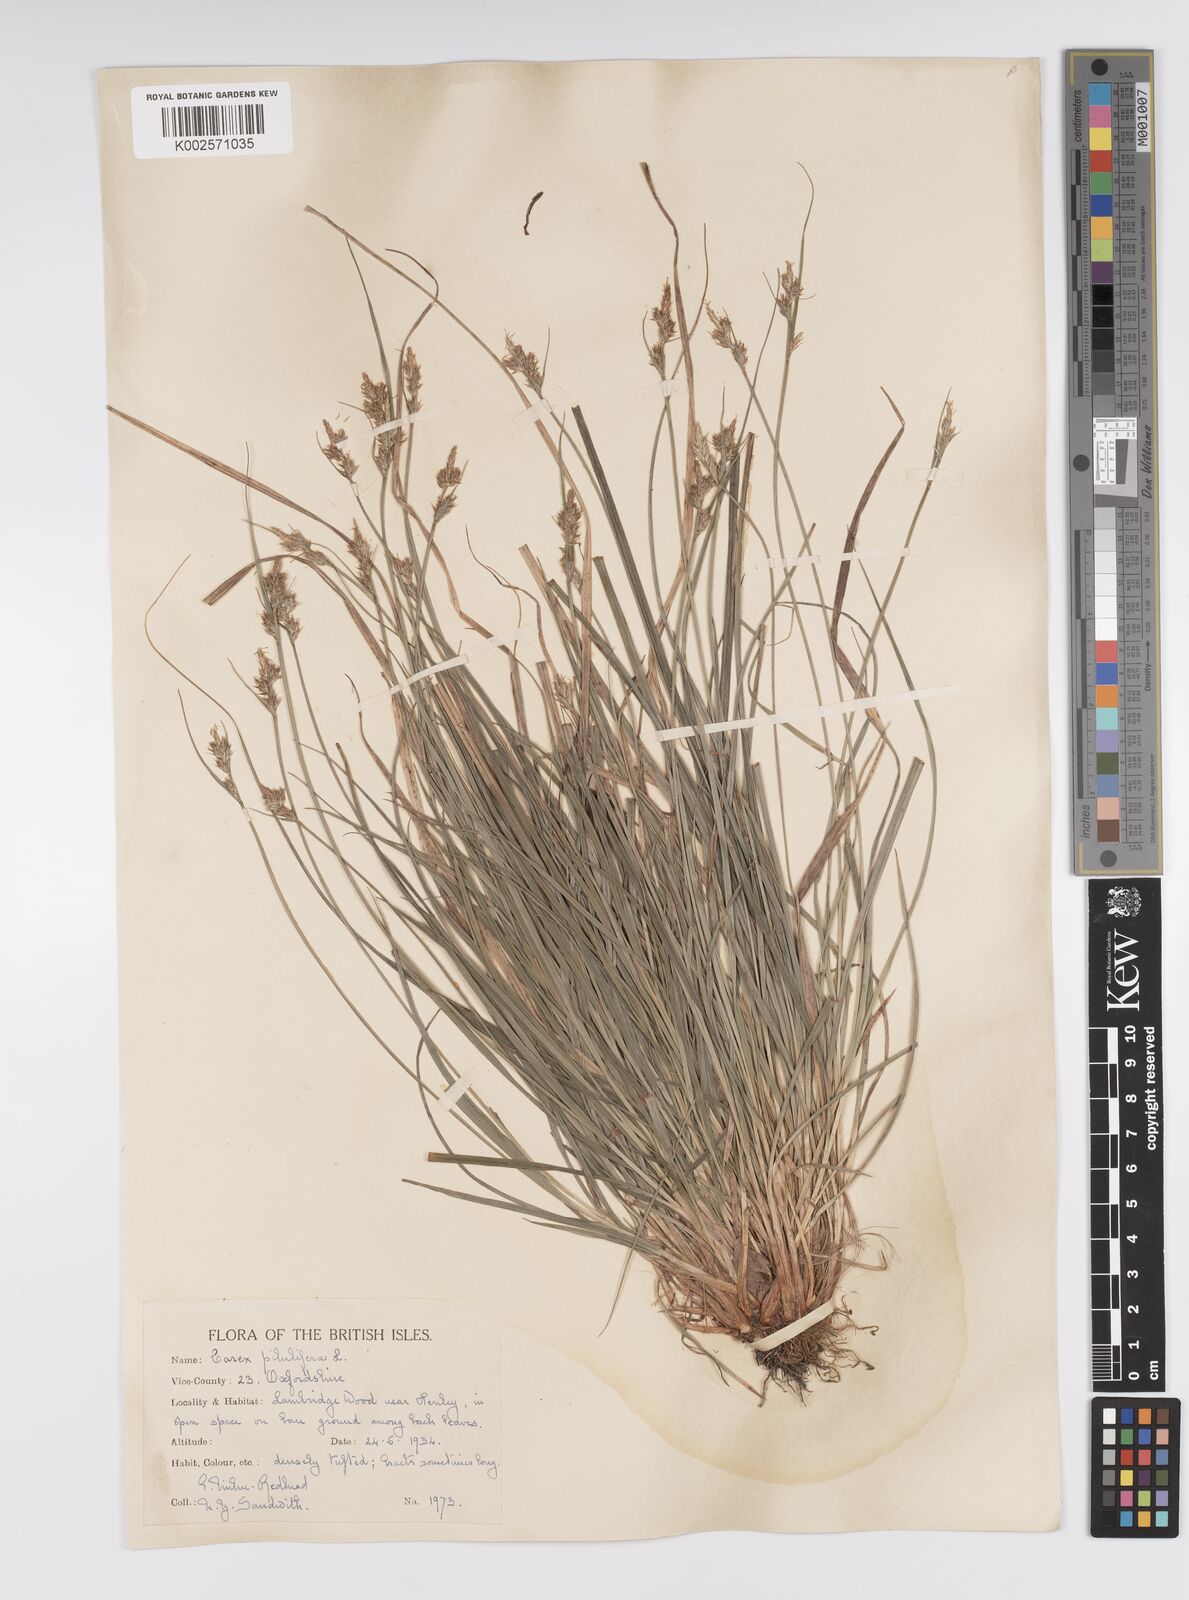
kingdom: Plantae
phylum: Tracheophyta
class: Liliopsida
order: Poales
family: Cyperaceae
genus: Carex
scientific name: Carex pilulifera
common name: Pill sedge
